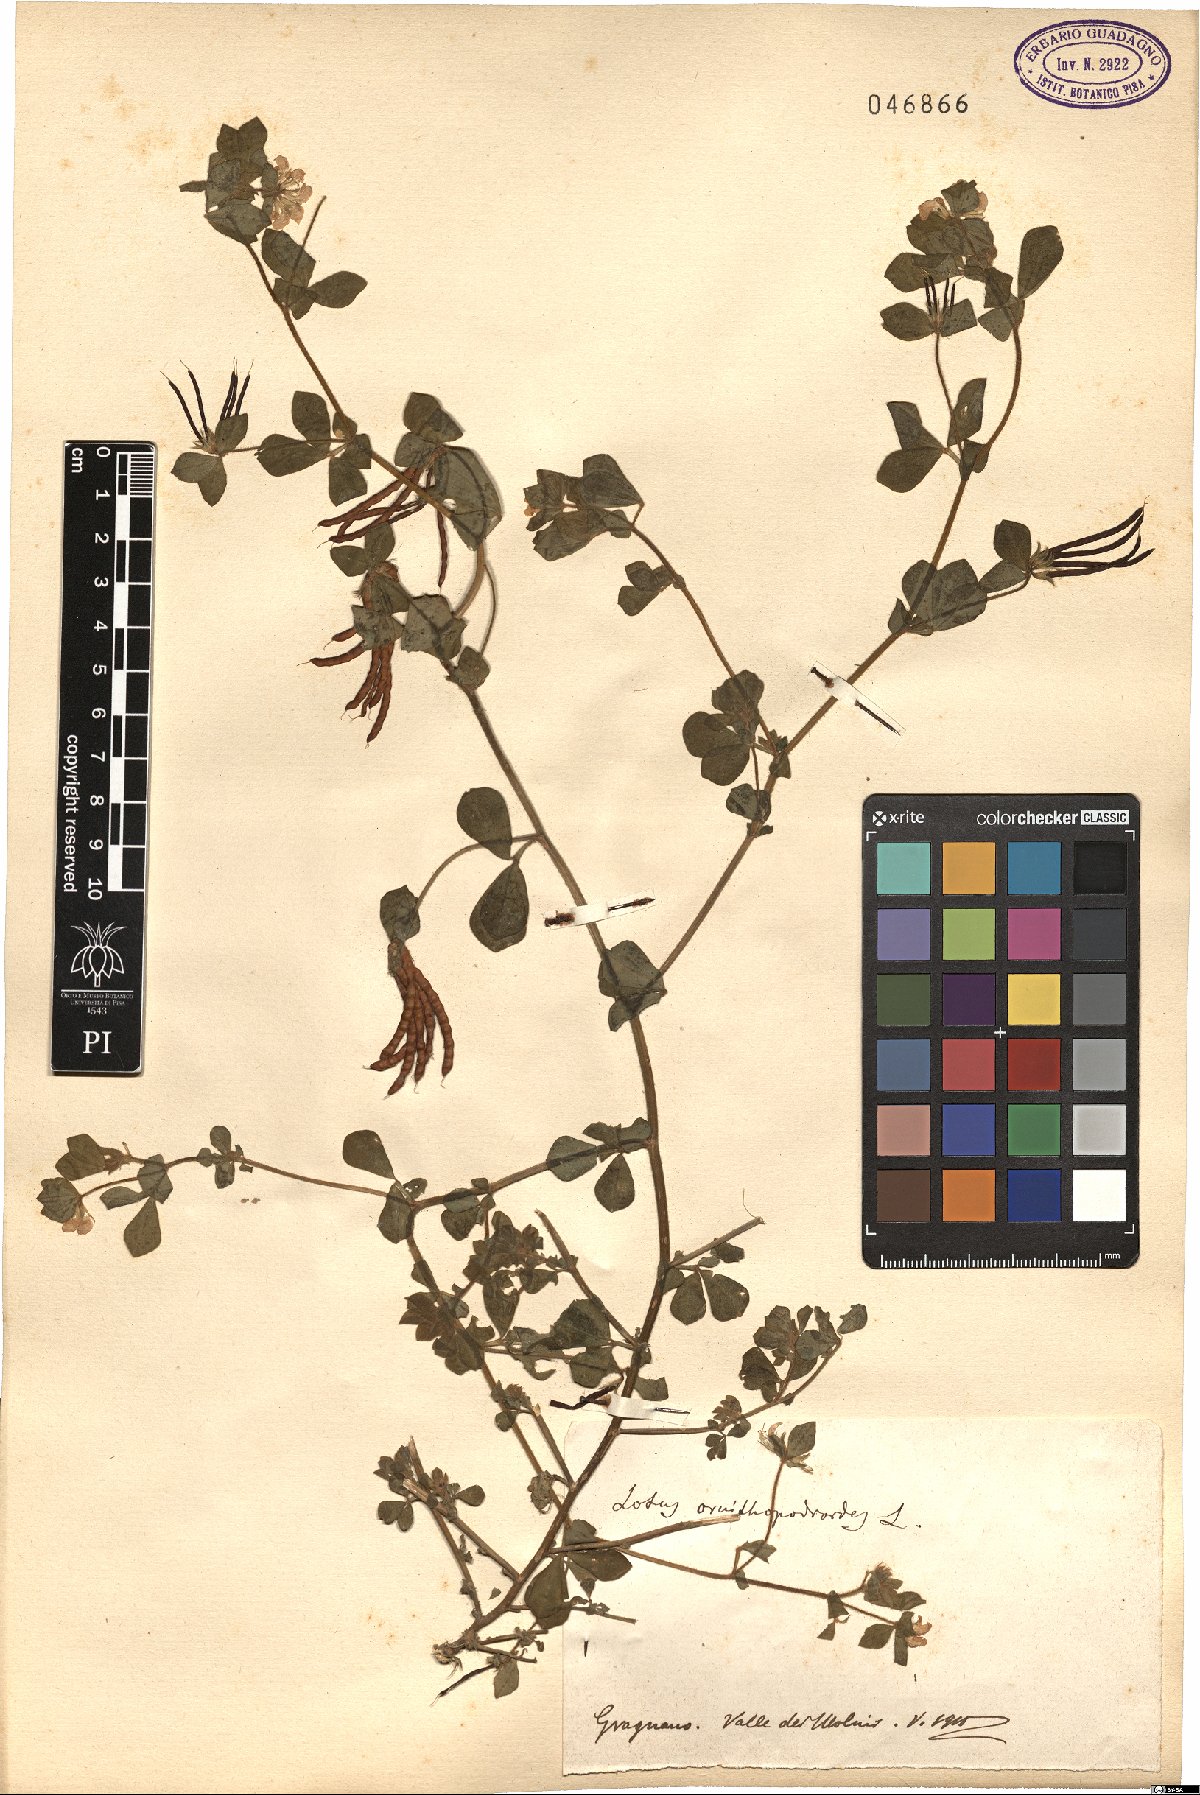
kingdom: Plantae
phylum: Tracheophyta
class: Magnoliopsida
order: Fabales
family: Fabaceae
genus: Lotus
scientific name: Lotus ornithopodioides
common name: Southern bird's-foot trefoil
